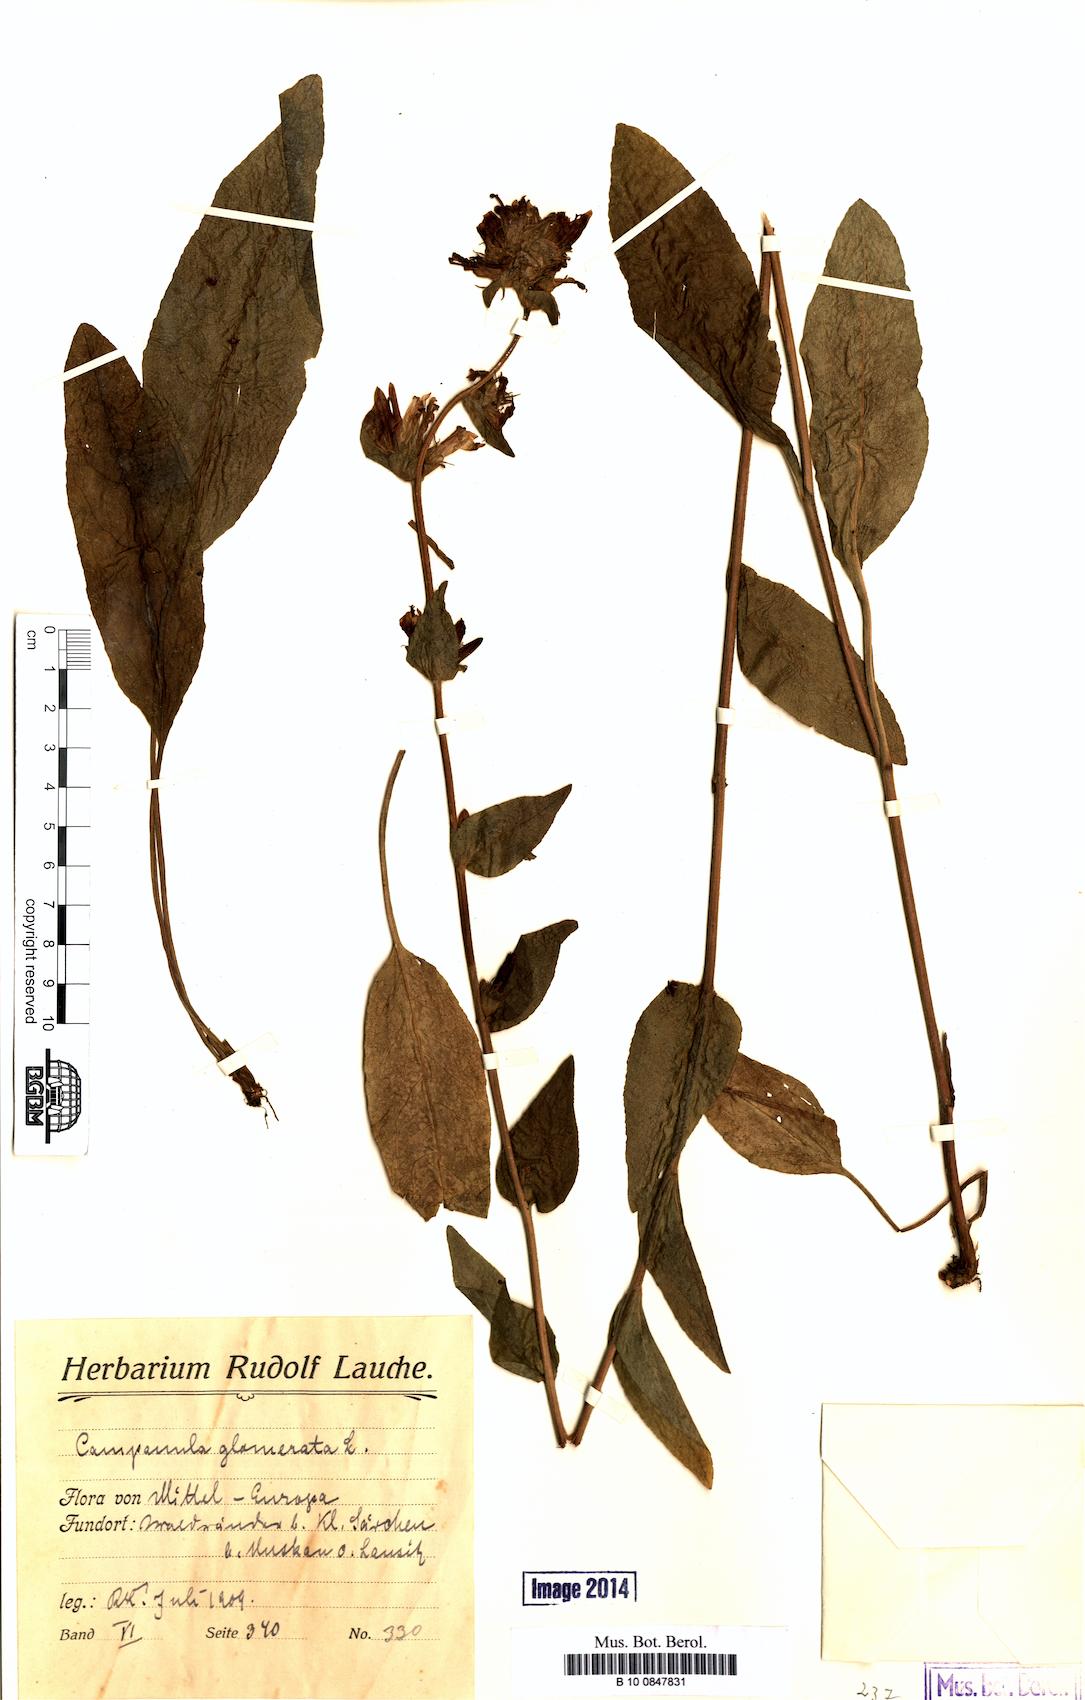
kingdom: Plantae
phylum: Tracheophyta
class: Magnoliopsida
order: Asterales
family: Campanulaceae
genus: Campanula
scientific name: Campanula glomerata
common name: Clustered bellflower
